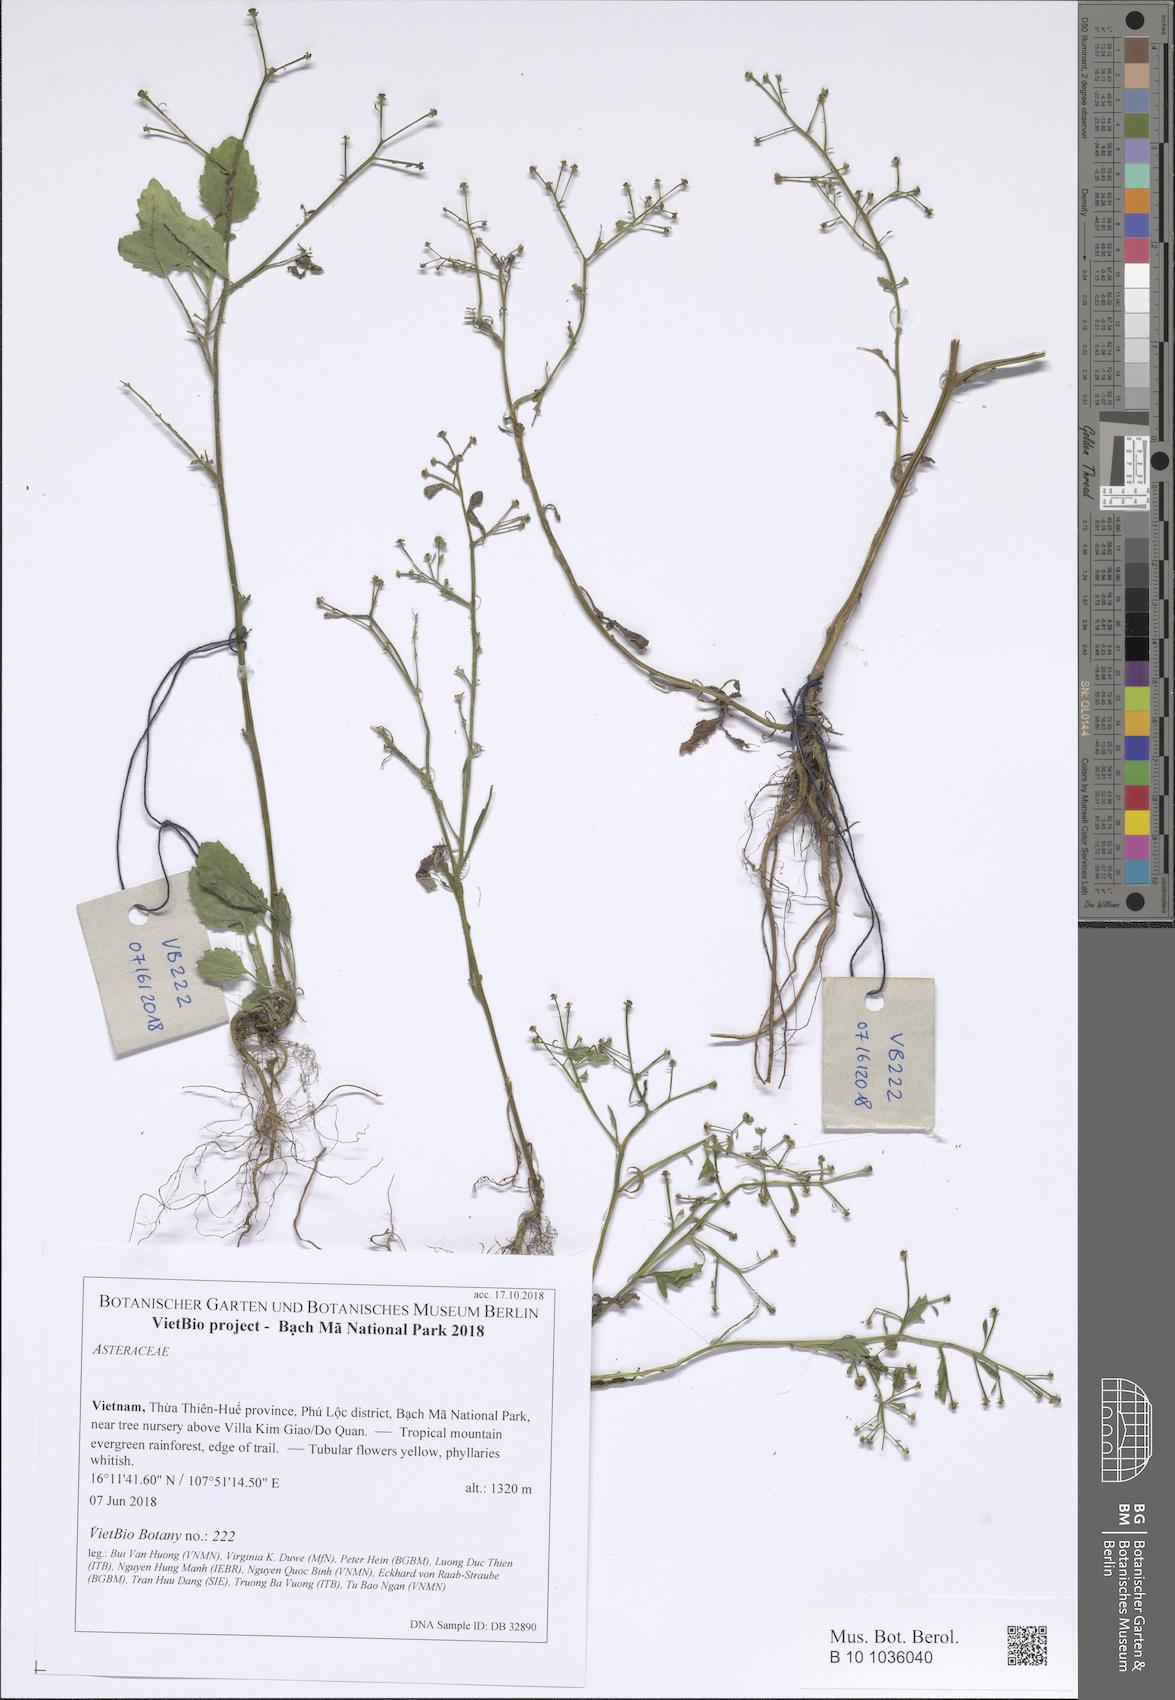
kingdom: Plantae
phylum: Tracheophyta
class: Magnoliopsida
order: Asterales
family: Asteraceae
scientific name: Asteraceae
